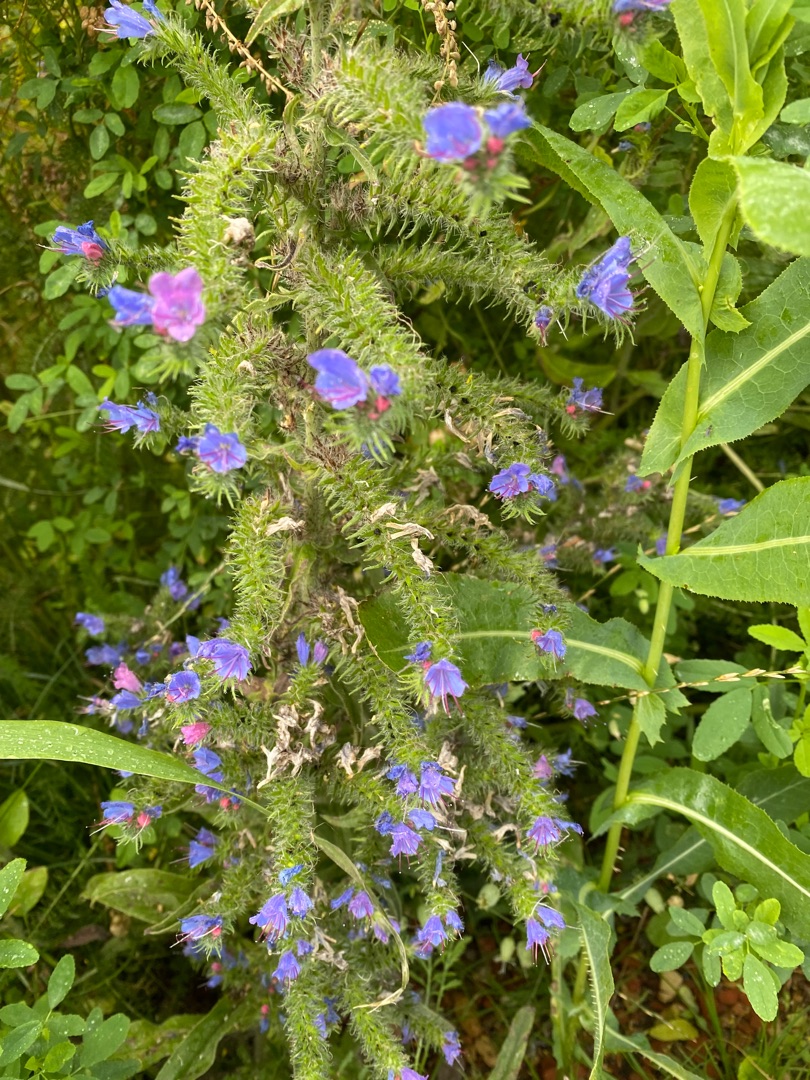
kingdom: Plantae
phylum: Tracheophyta
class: Magnoliopsida
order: Boraginales
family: Boraginaceae
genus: Echium
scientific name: Echium vulgare
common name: Slangehoved
